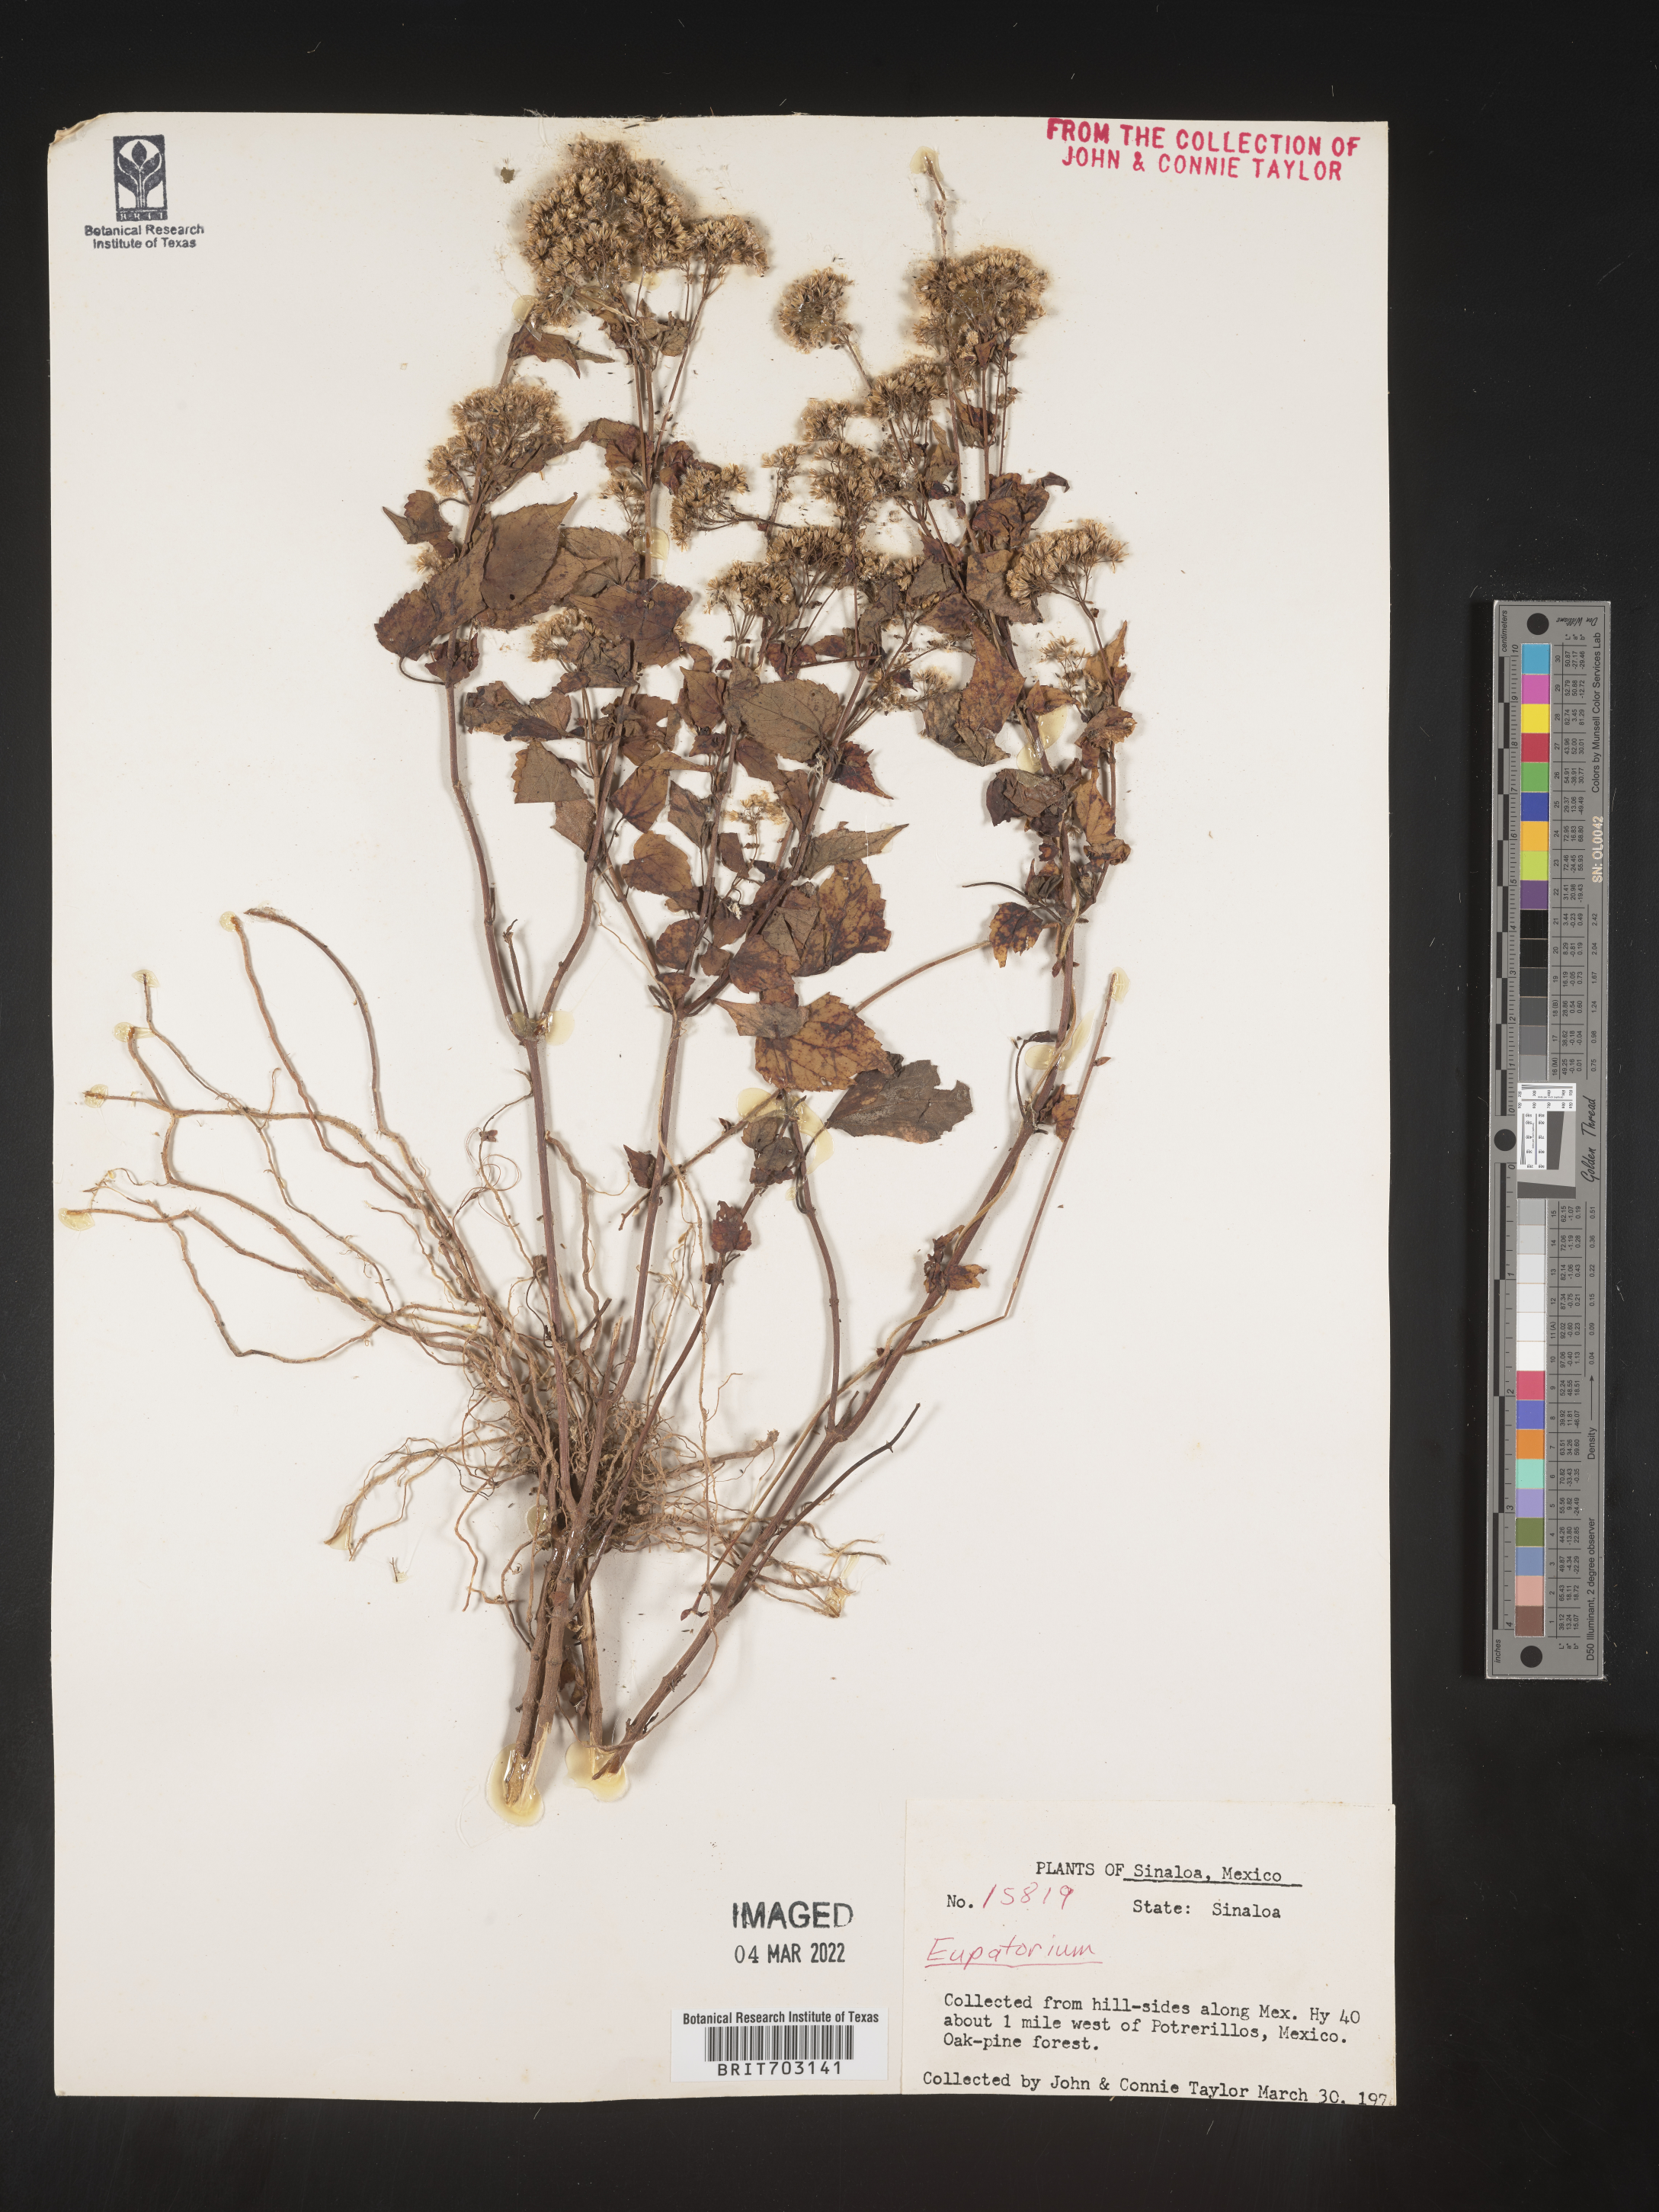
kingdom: Plantae
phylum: Tracheophyta
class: Magnoliopsida
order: Asterales
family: Asteraceae
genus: Eupatorium
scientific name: Eupatorium
